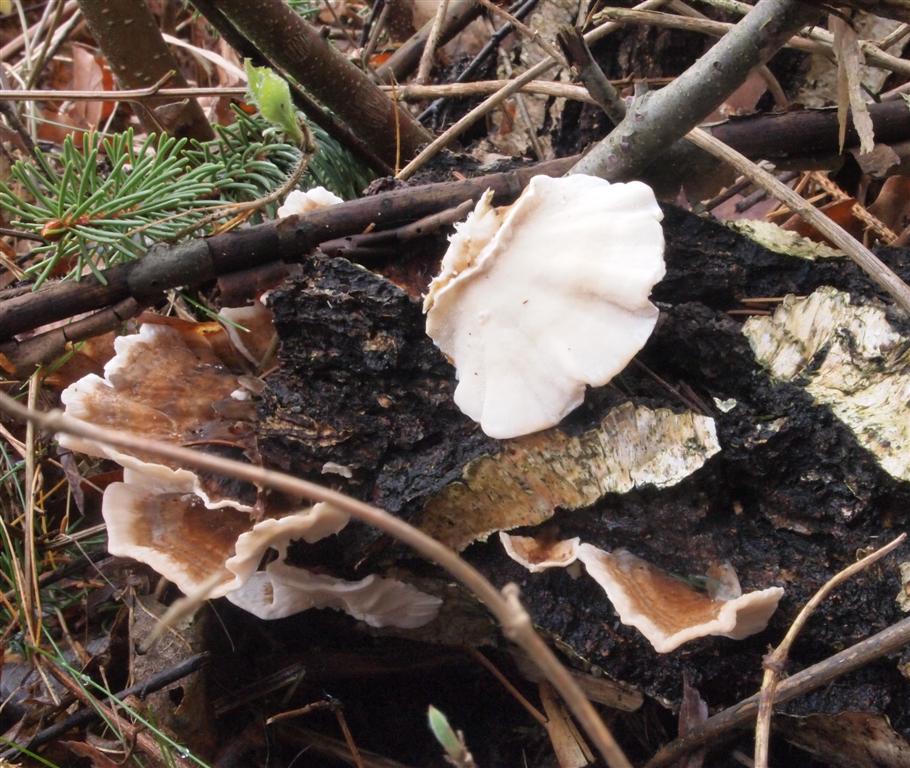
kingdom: Fungi
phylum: Basidiomycota
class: Agaricomycetes
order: Polyporales
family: Polyporaceae
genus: Trametes
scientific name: Trametes versicolor
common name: broget læderporesvamp
